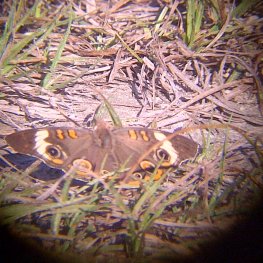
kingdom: Animalia
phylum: Arthropoda
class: Insecta
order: Lepidoptera
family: Nymphalidae
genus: Junonia
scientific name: Junonia coenia
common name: Common Buckeye
